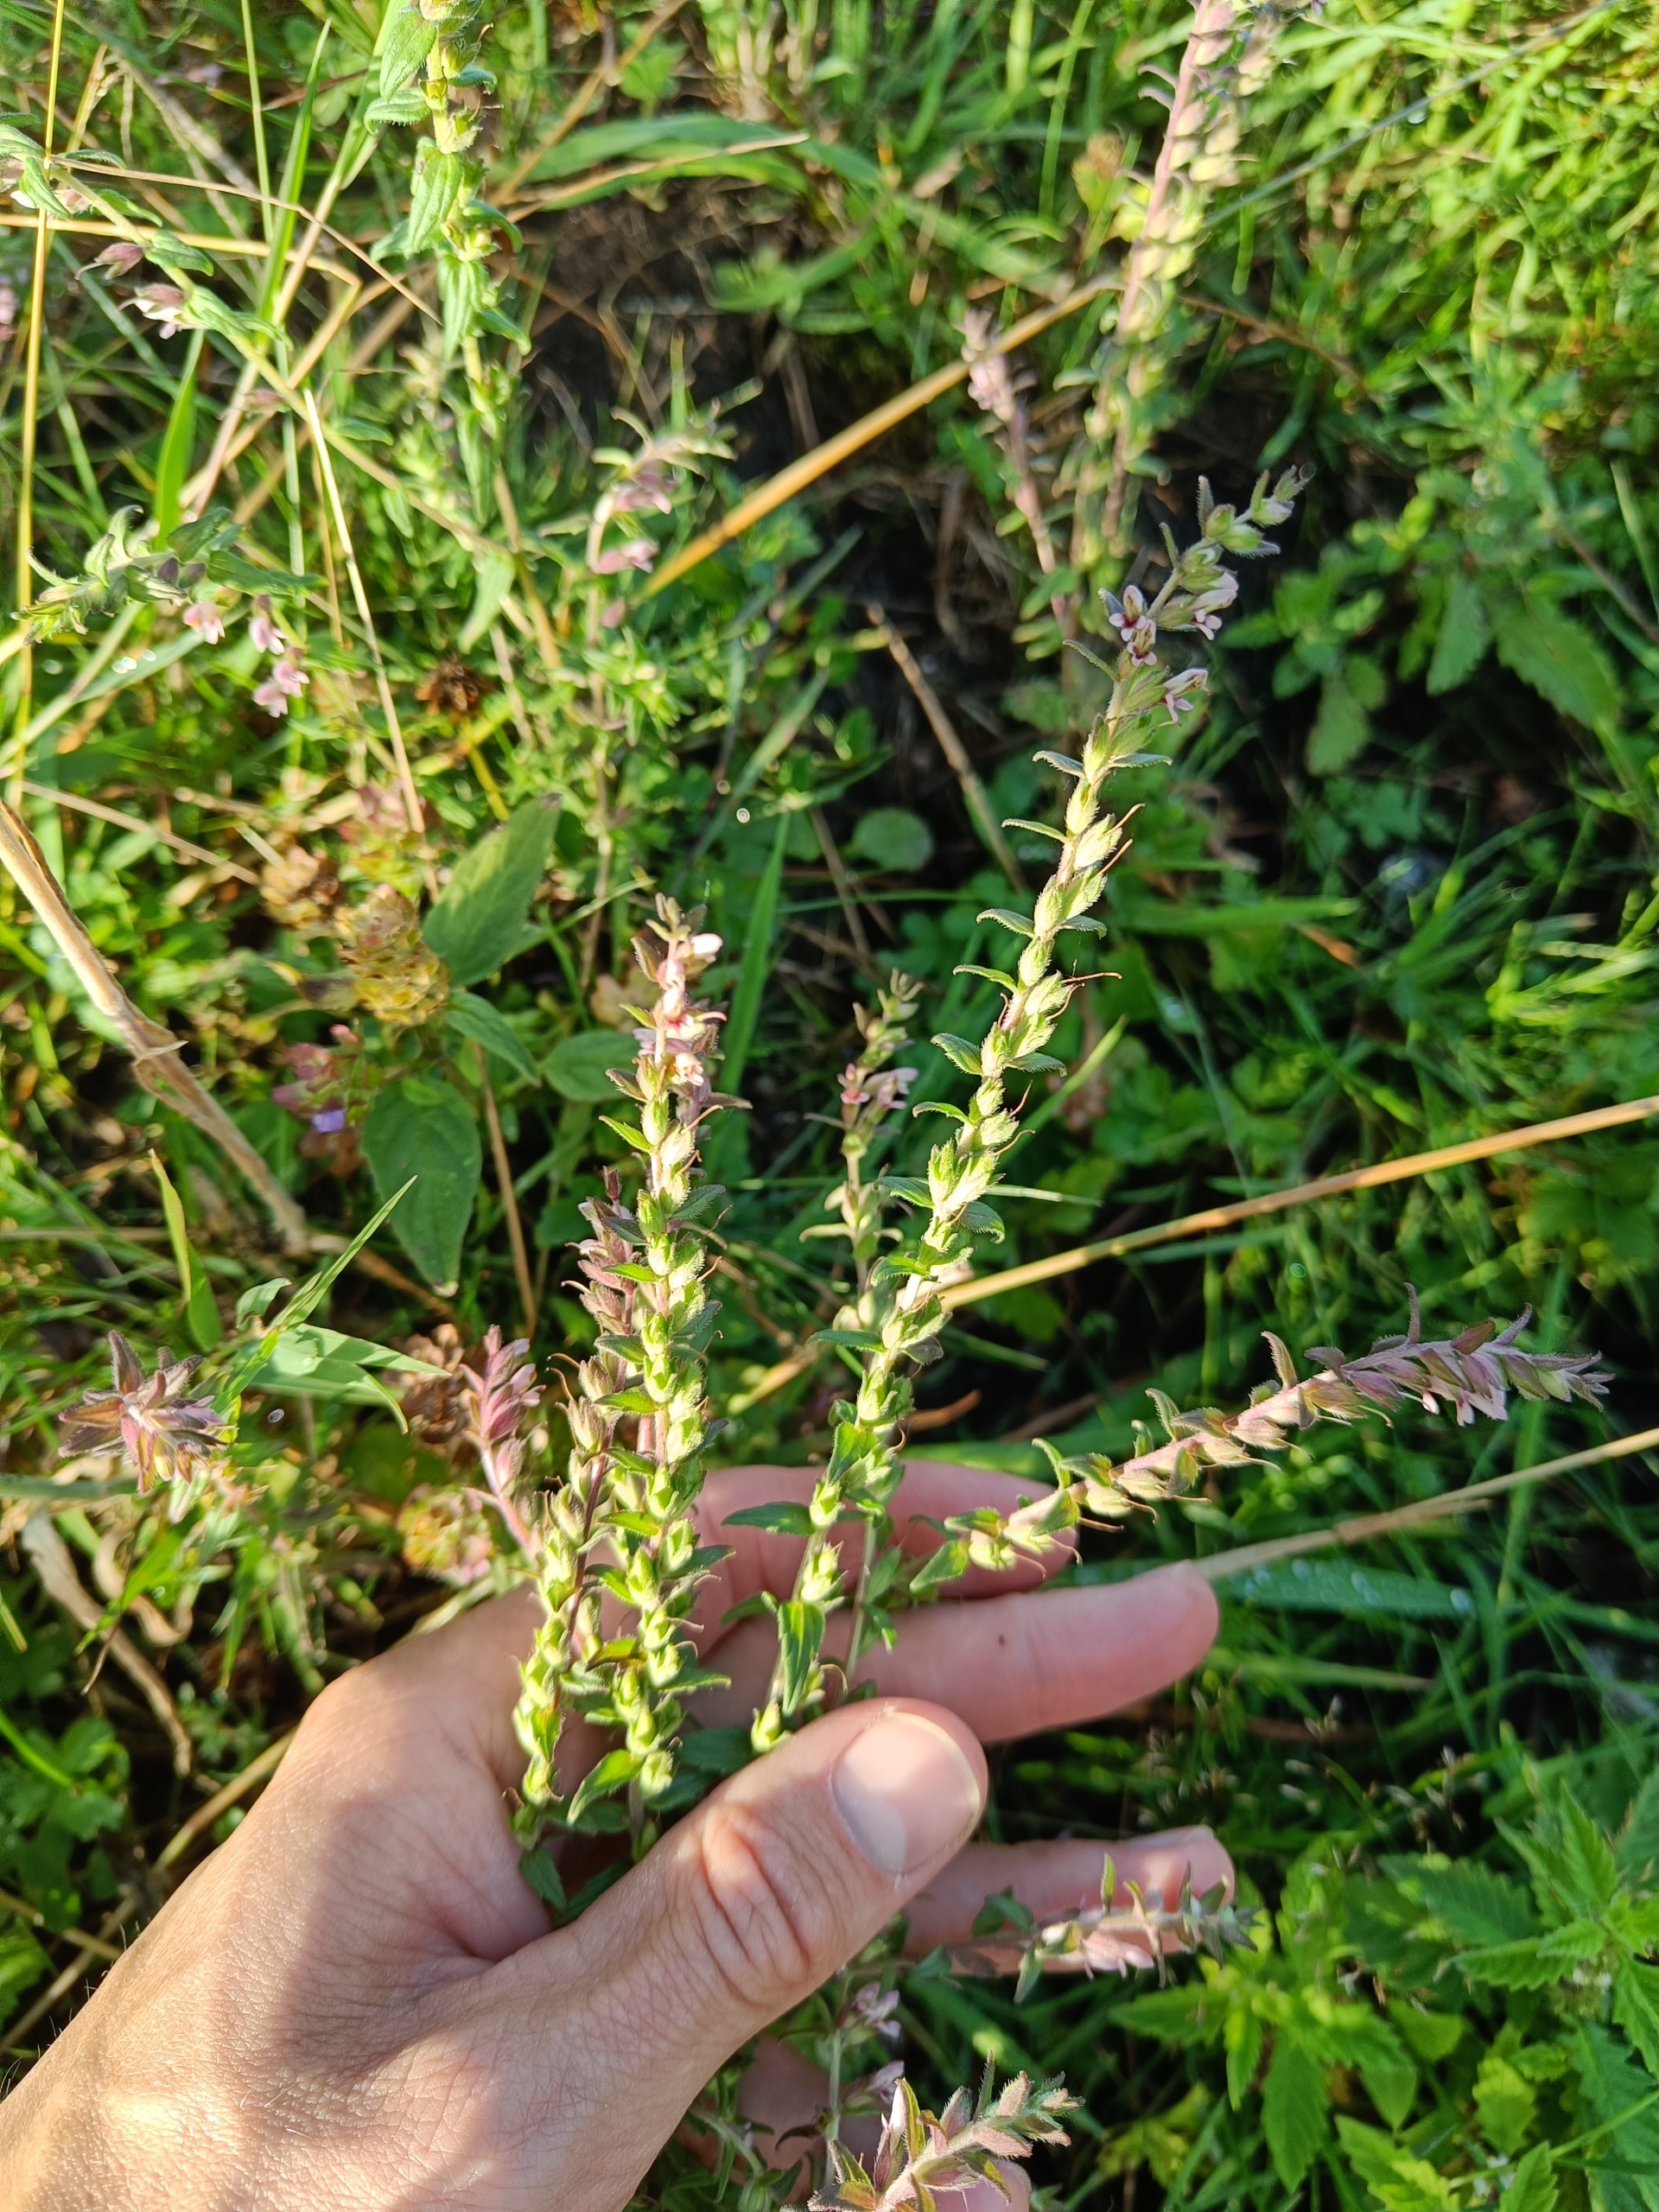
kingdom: Plantae
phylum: Tracheophyta
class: Magnoliopsida
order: Lamiales
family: Orobanchaceae
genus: Odontites
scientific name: Odontites vernus
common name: Mark-rødtop
